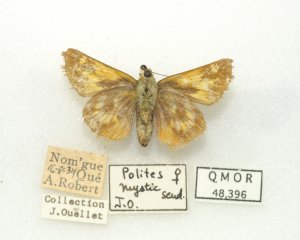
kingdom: Animalia
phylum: Arthropoda
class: Insecta
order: Lepidoptera
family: Hesperiidae
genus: Polites
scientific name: Polites
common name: Long Dash Skipper
